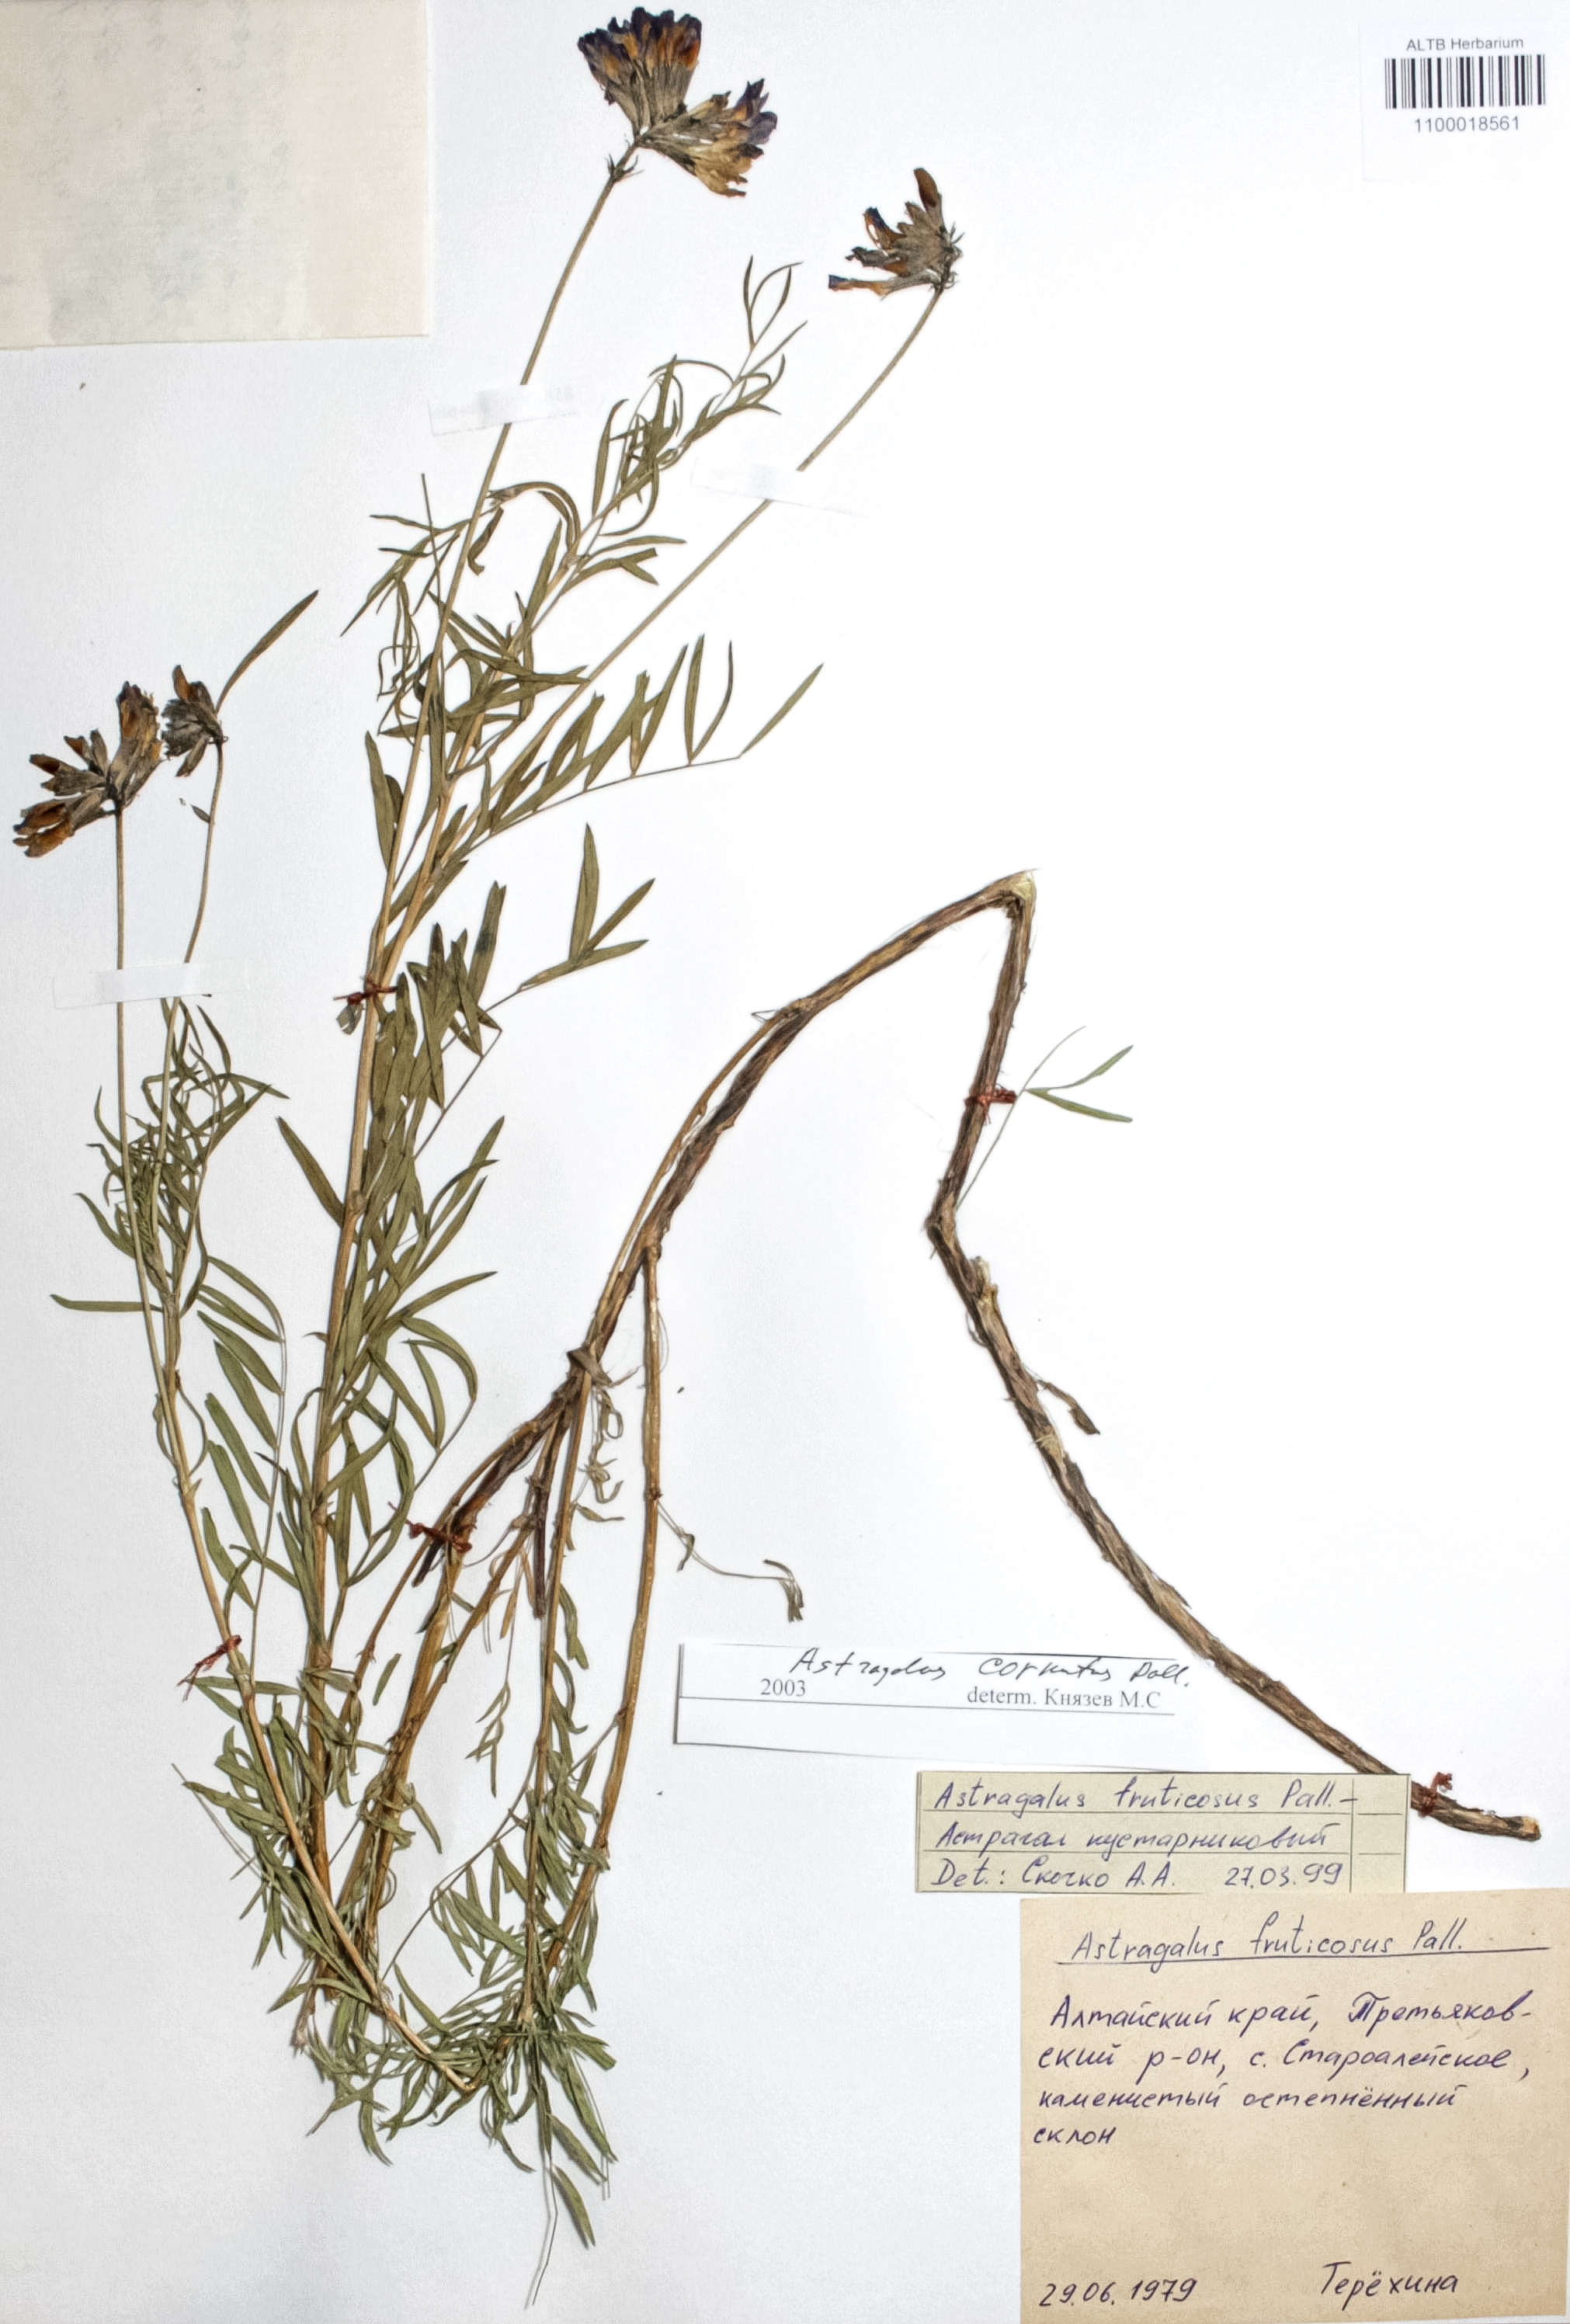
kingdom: Plantae
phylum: Tracheophyta
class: Magnoliopsida
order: Fabales
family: Fabaceae
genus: Astragalus
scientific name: Astragalus cornutus
